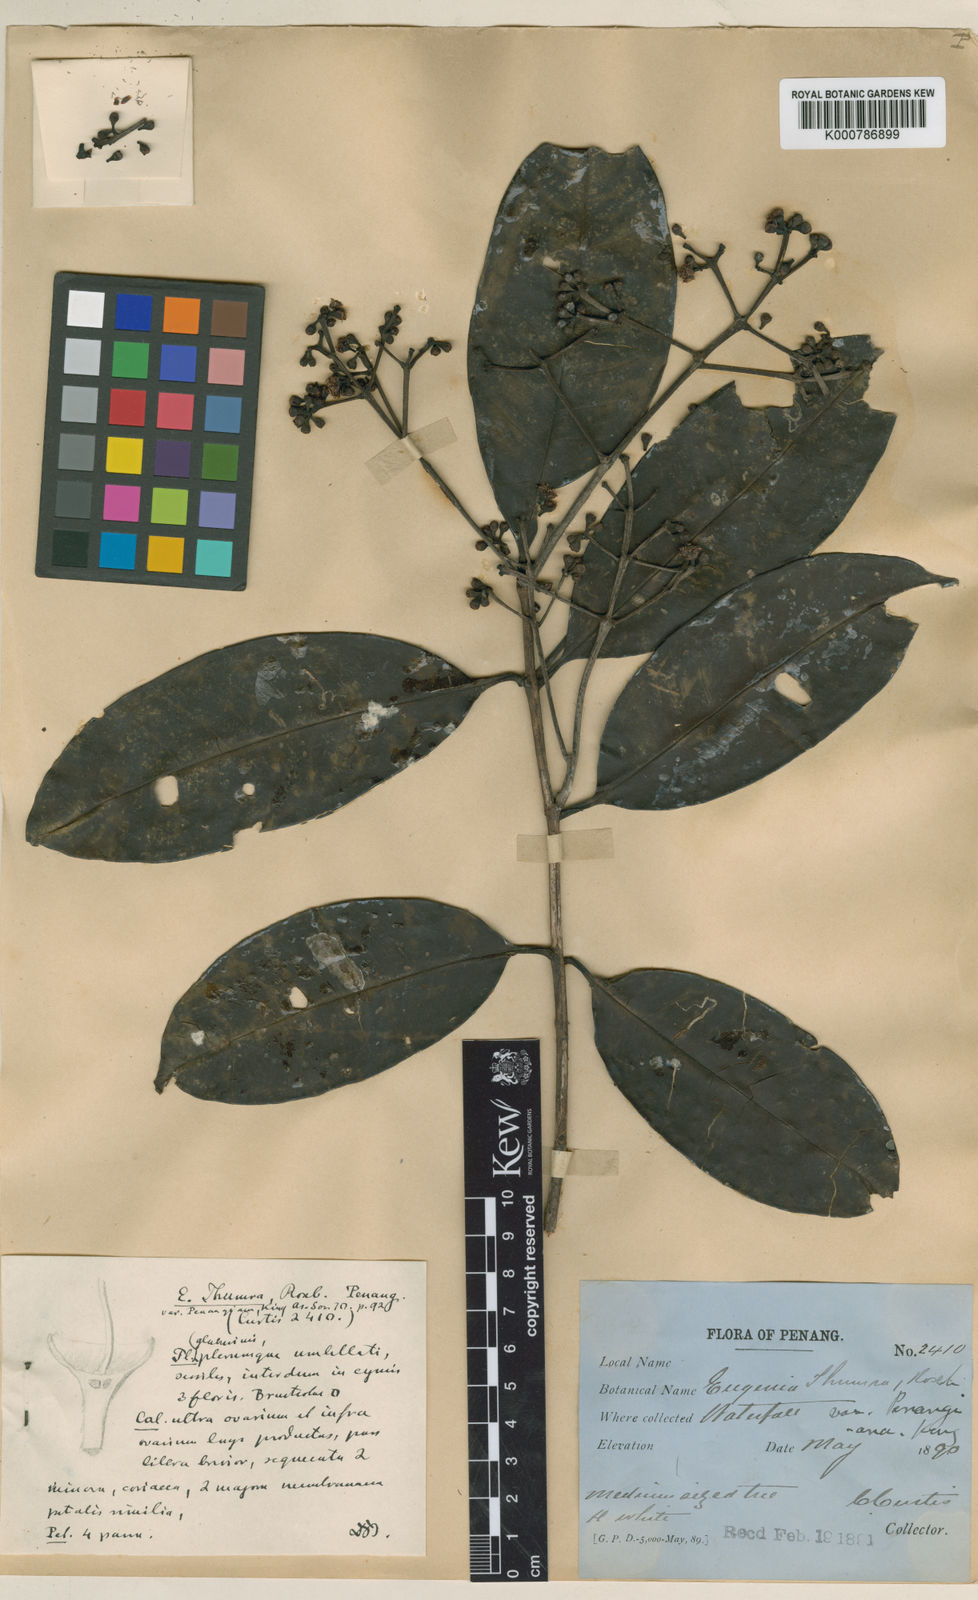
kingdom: Plantae
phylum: Tracheophyta
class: Magnoliopsida
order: Myrtales
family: Myrtaceae
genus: Syzygium
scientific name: Syzygium thumra
